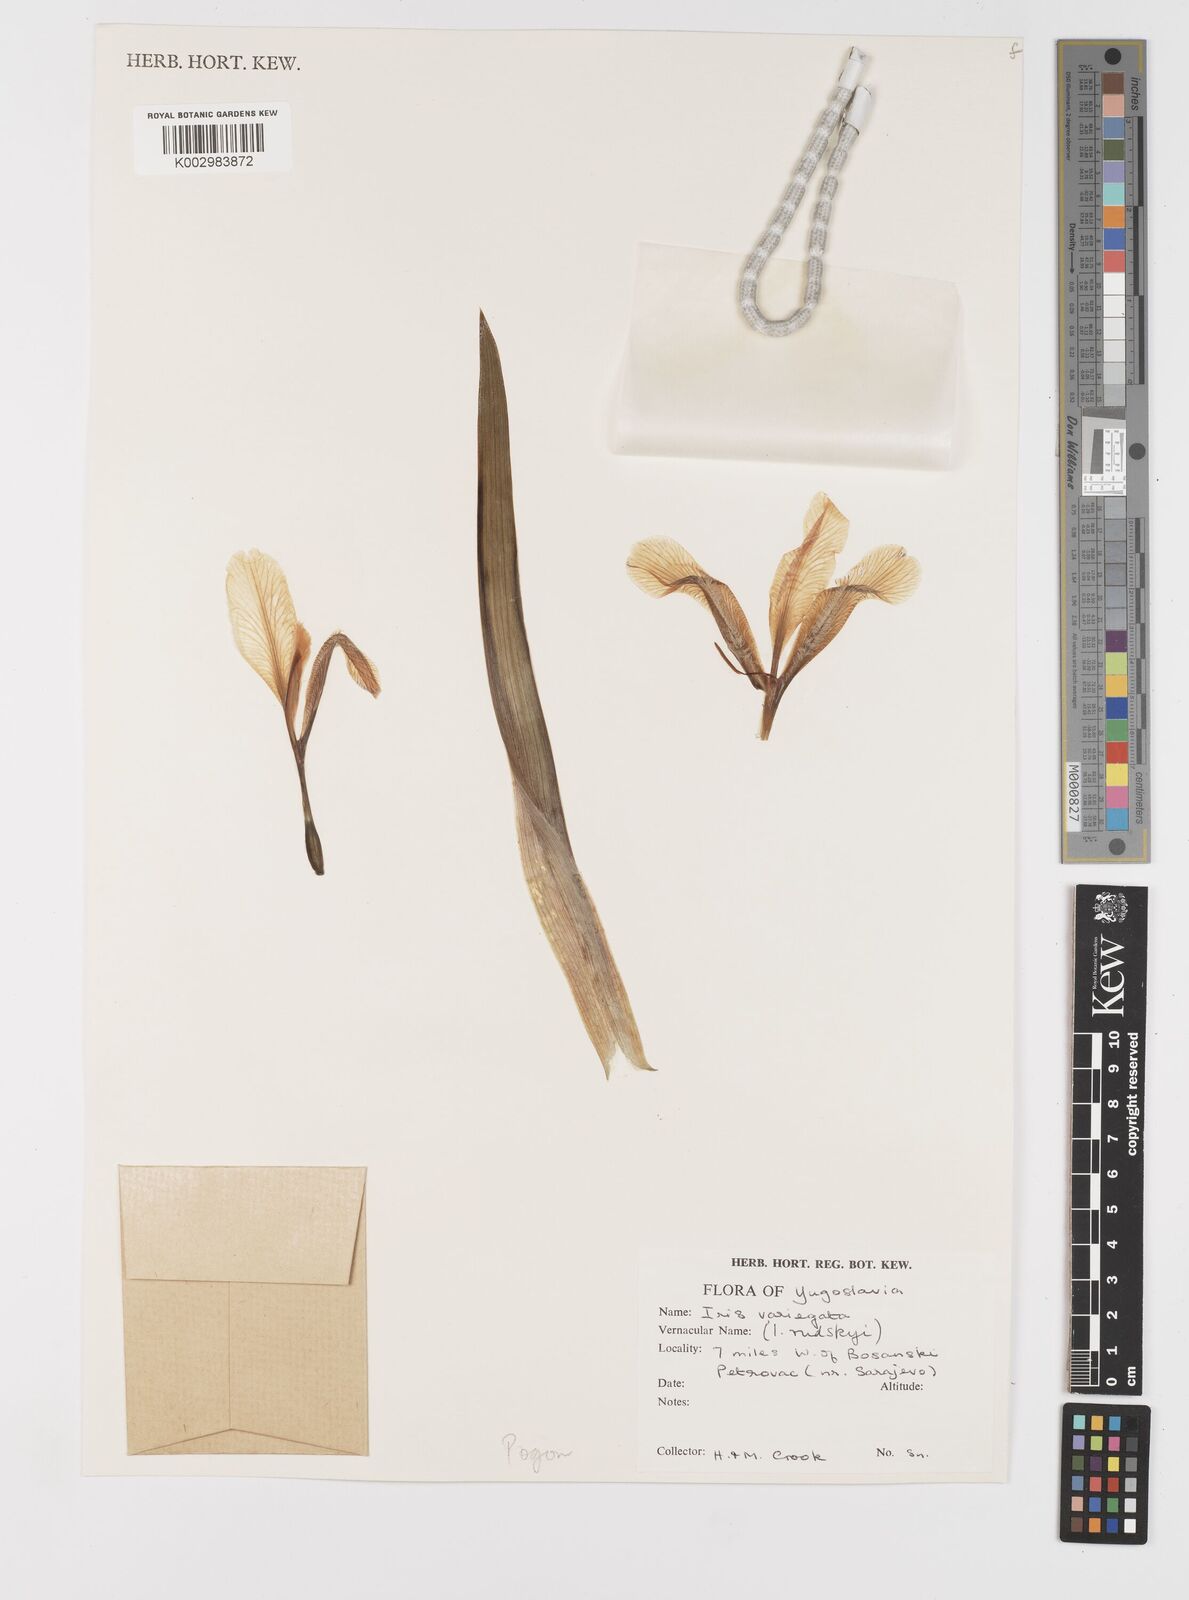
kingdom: Plantae
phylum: Tracheophyta
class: Liliopsida
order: Asparagales
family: Iridaceae
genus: Iris
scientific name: Iris variegata
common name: Hungarian iris
